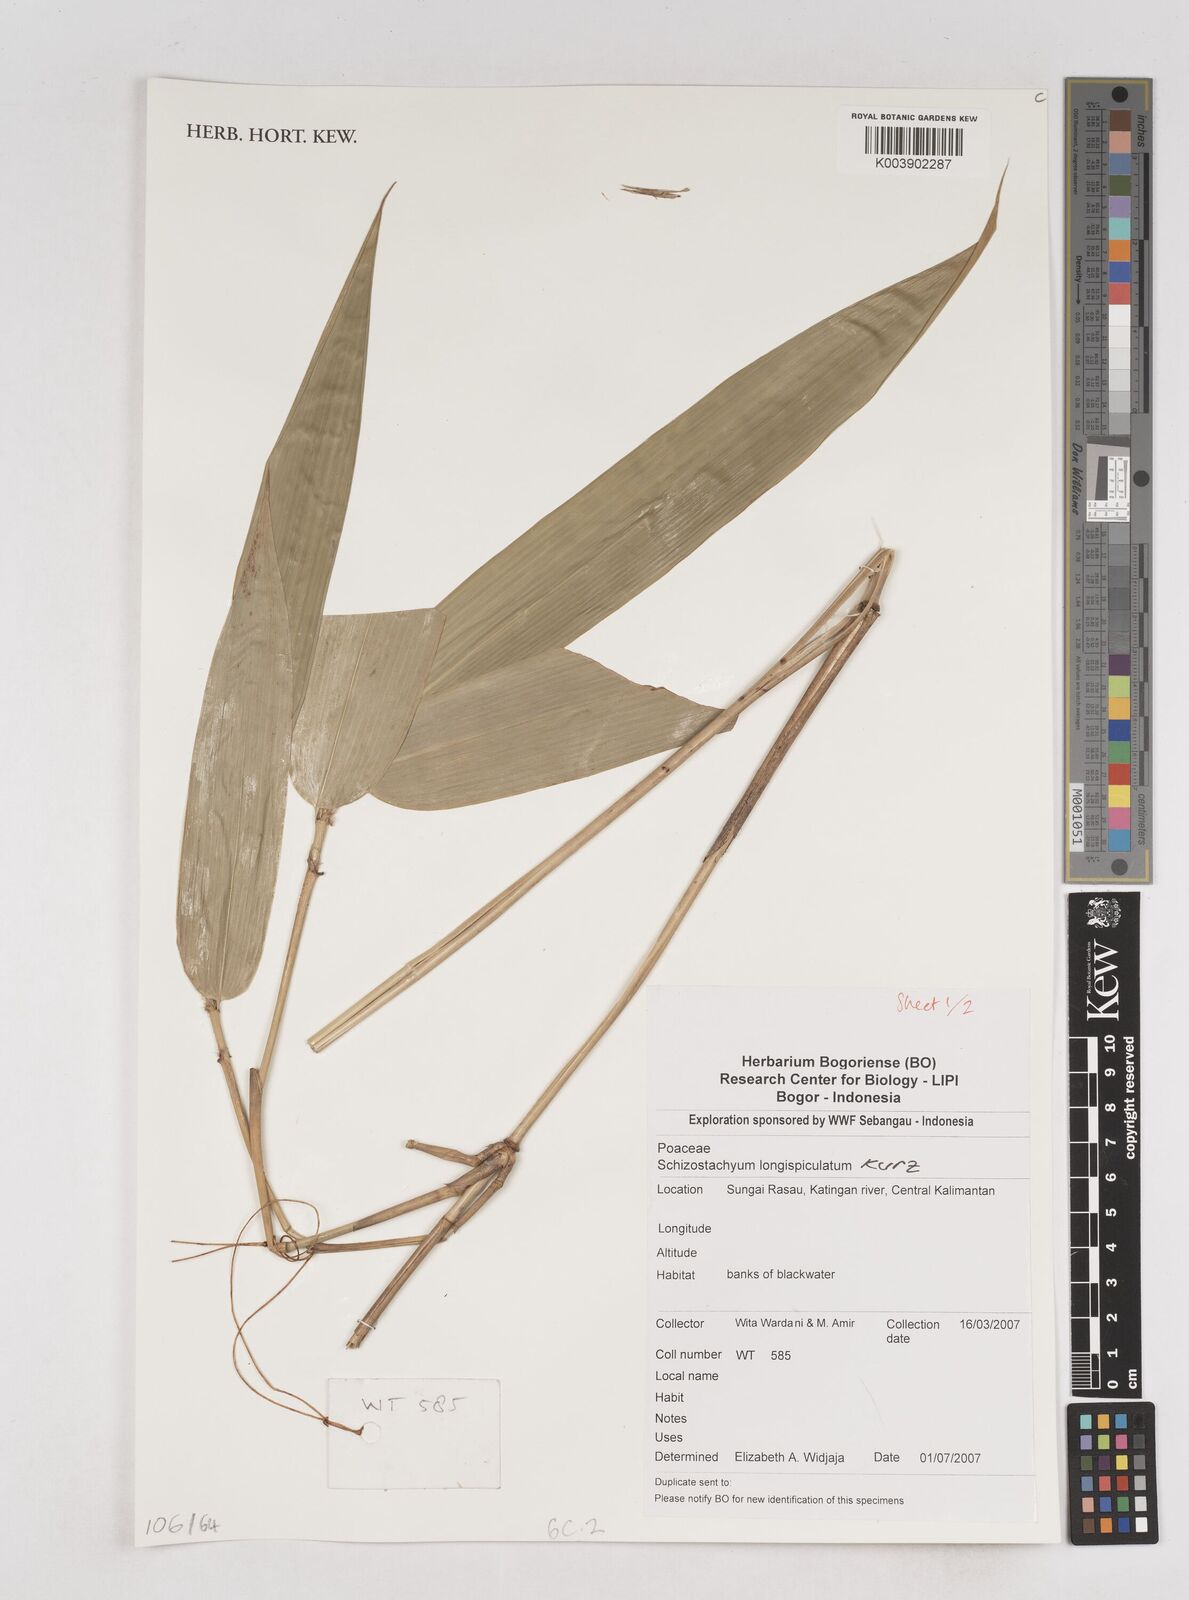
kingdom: Plantae
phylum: Tracheophyta
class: Liliopsida
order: Poales
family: Poaceae
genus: Schizostachyum
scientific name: Schizostachyum blumei
